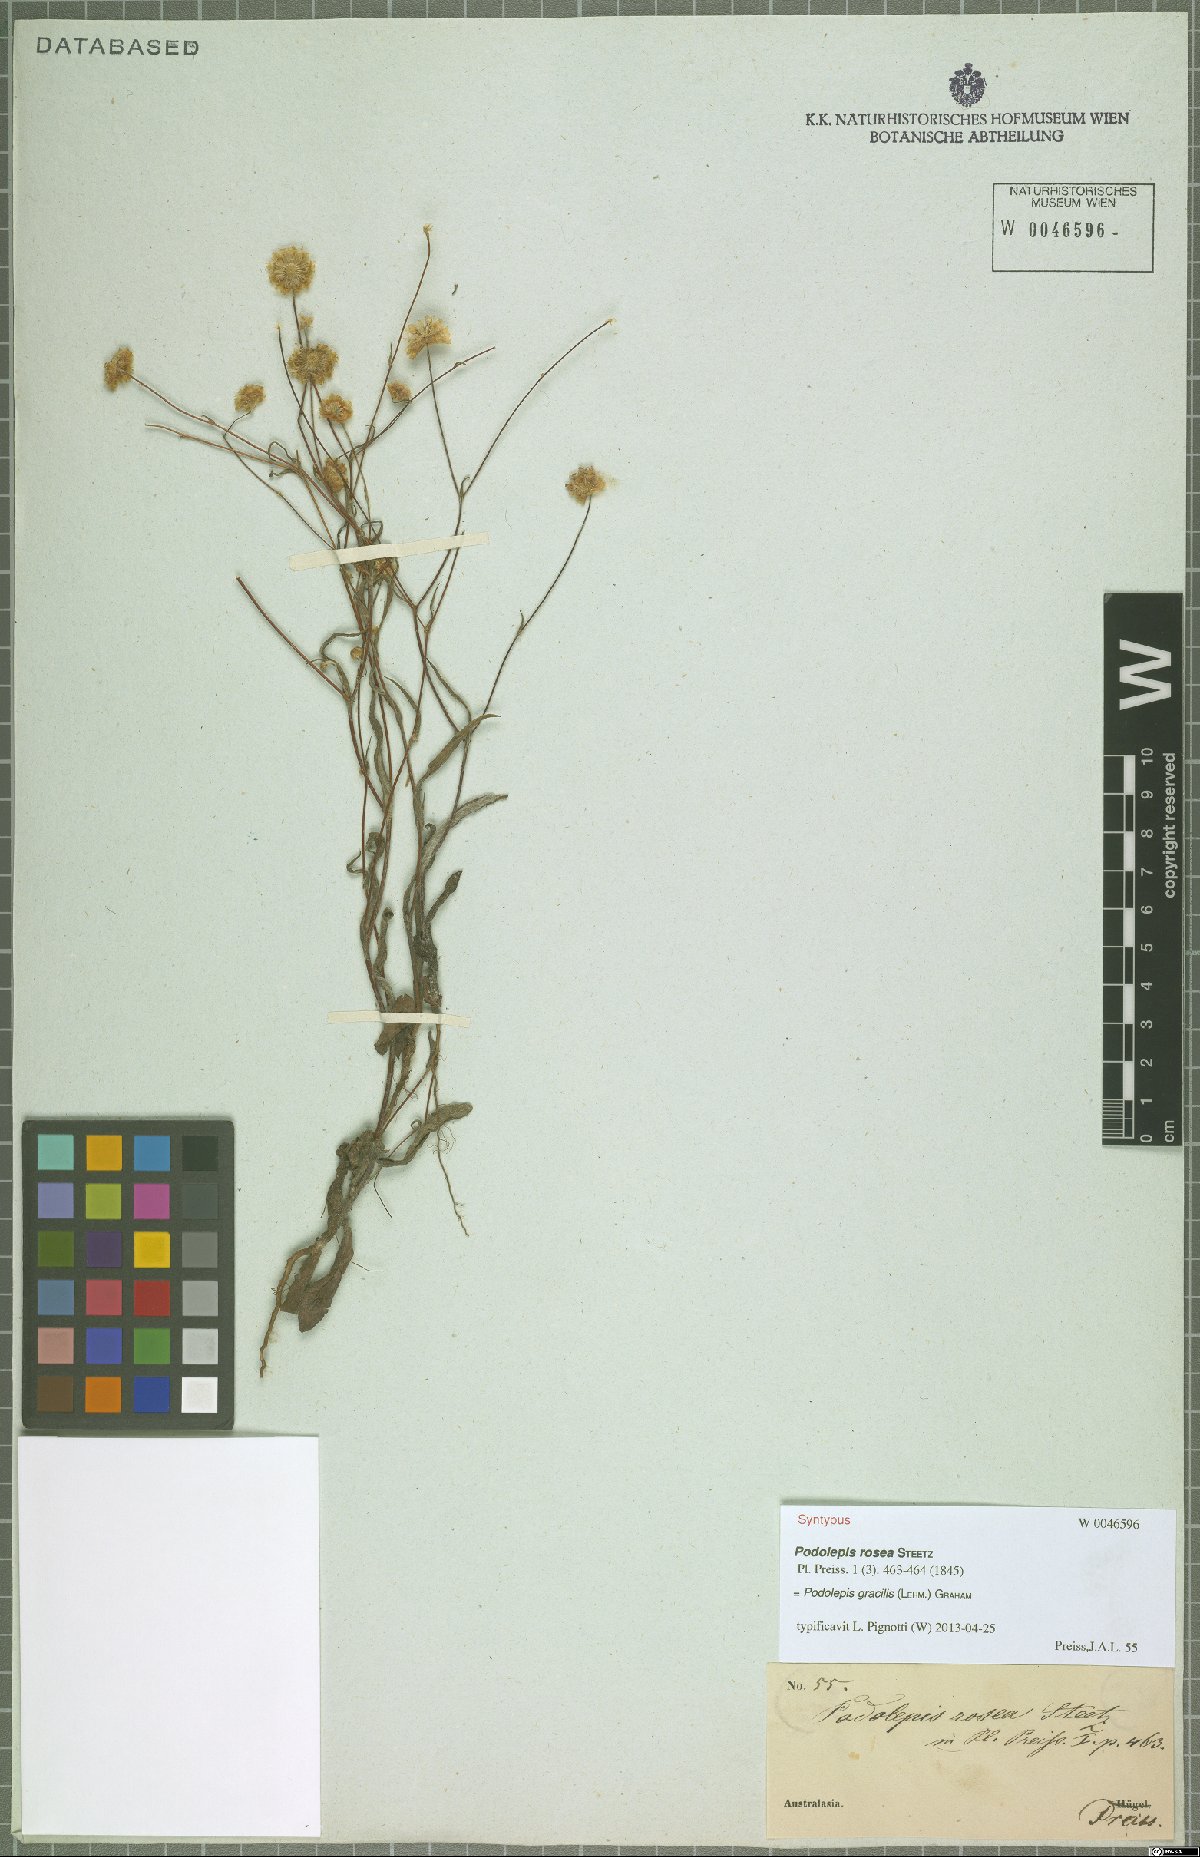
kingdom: Plantae
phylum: Tracheophyta
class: Magnoliopsida
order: Asterales
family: Asteraceae
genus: Podolepis
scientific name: Podolepis gracilis
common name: Slender podolepis
